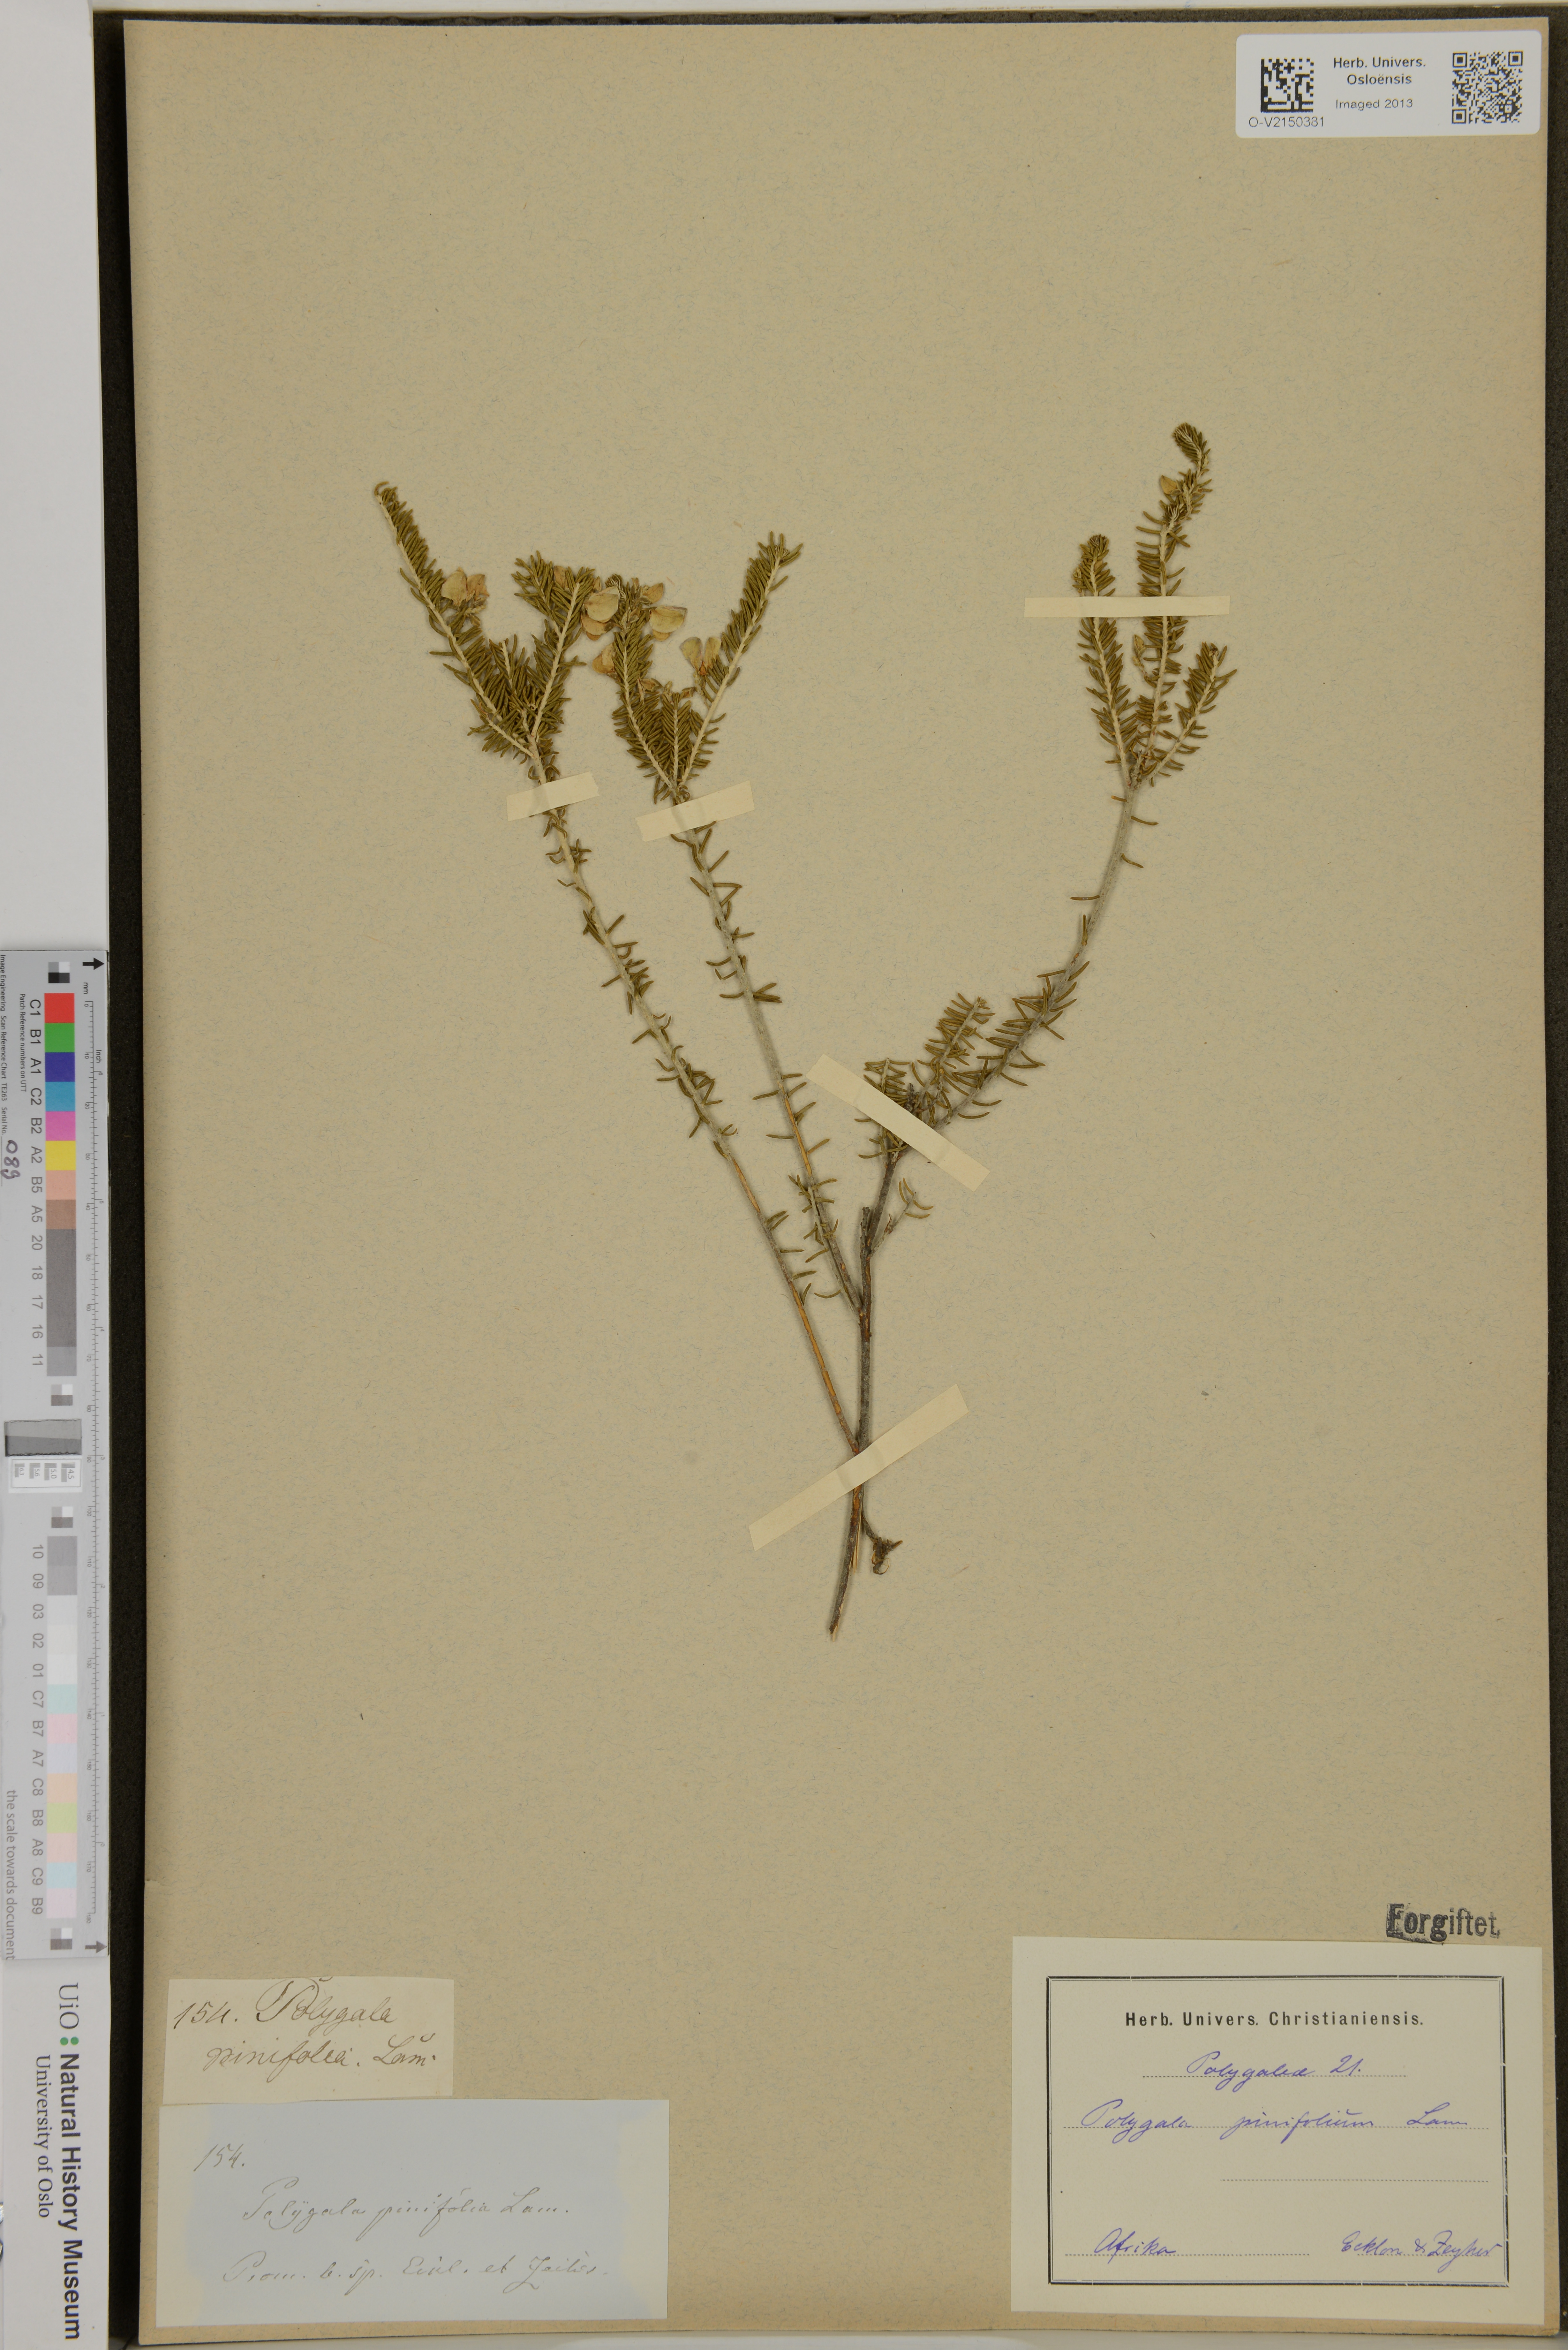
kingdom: Plantae
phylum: Tracheophyta
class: Magnoliopsida
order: Fabales
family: Polygalaceae
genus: Polygala
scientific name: Polygala
